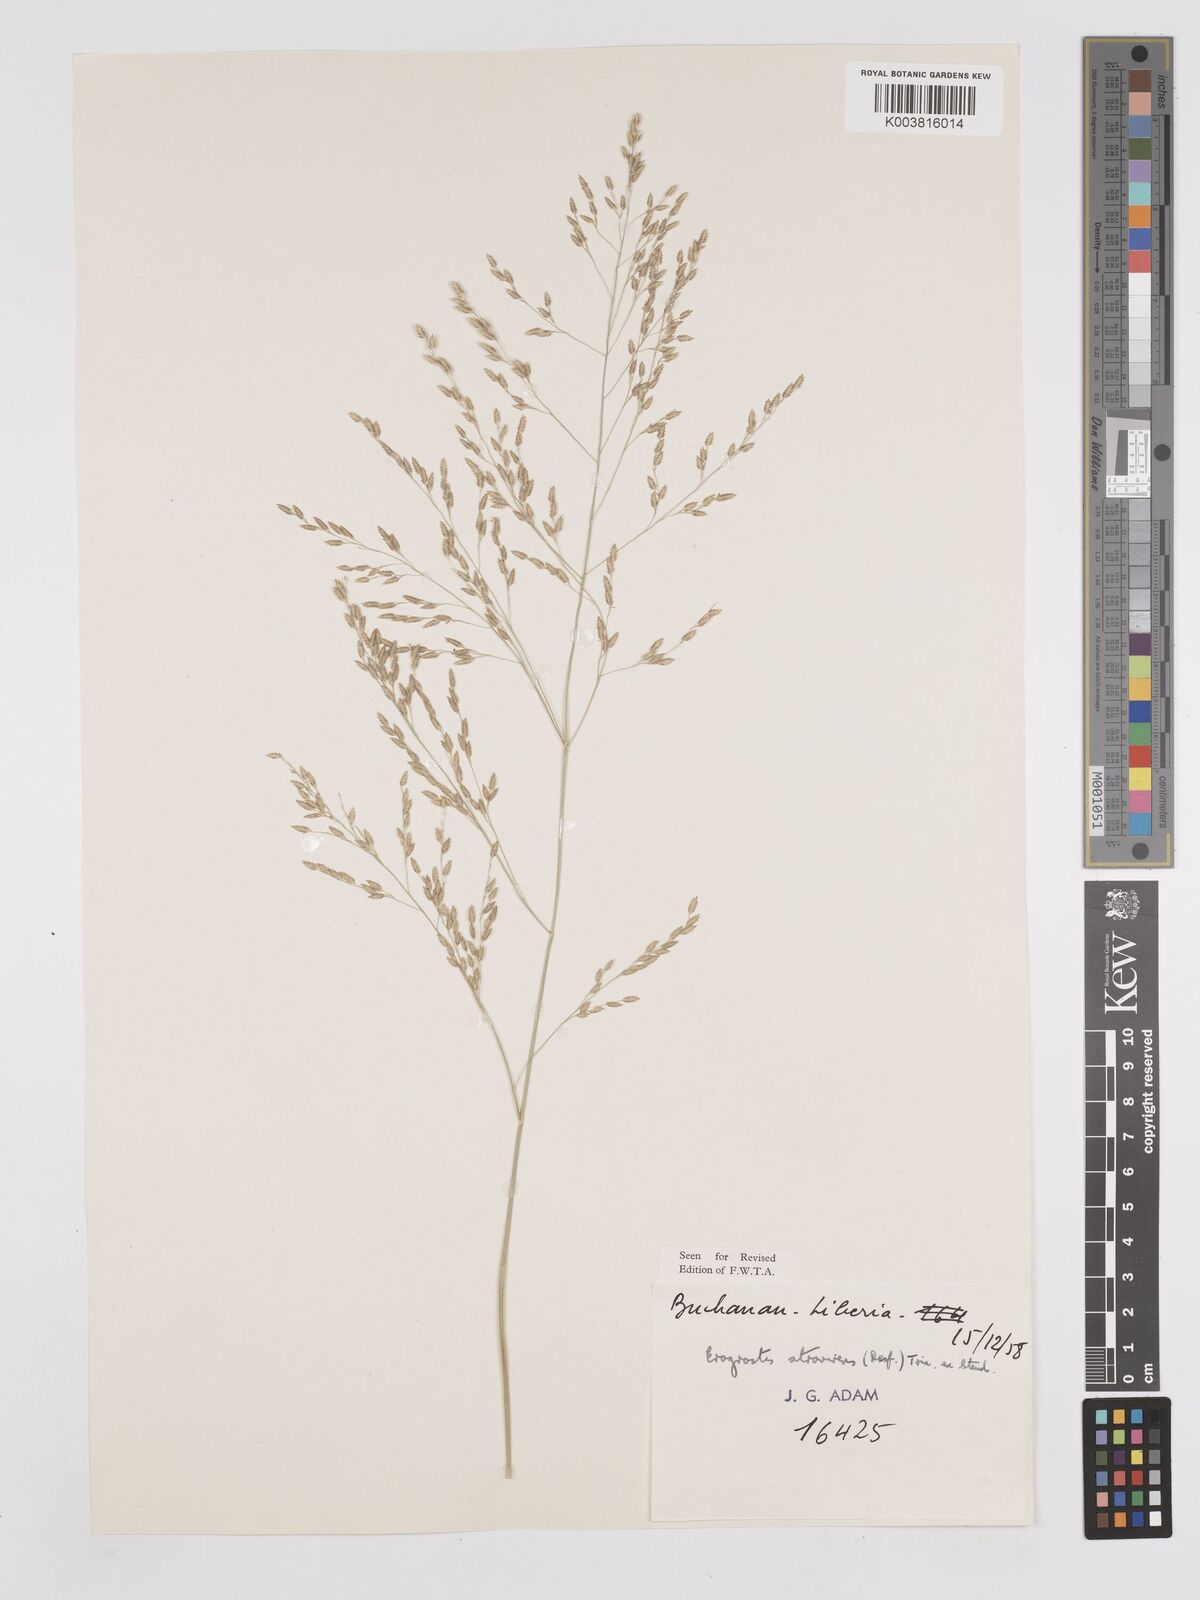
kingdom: Plantae
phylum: Tracheophyta
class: Liliopsida
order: Poales
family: Poaceae
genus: Eragrostis
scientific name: Eragrostis atrovirens
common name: Thalia lovegrass
